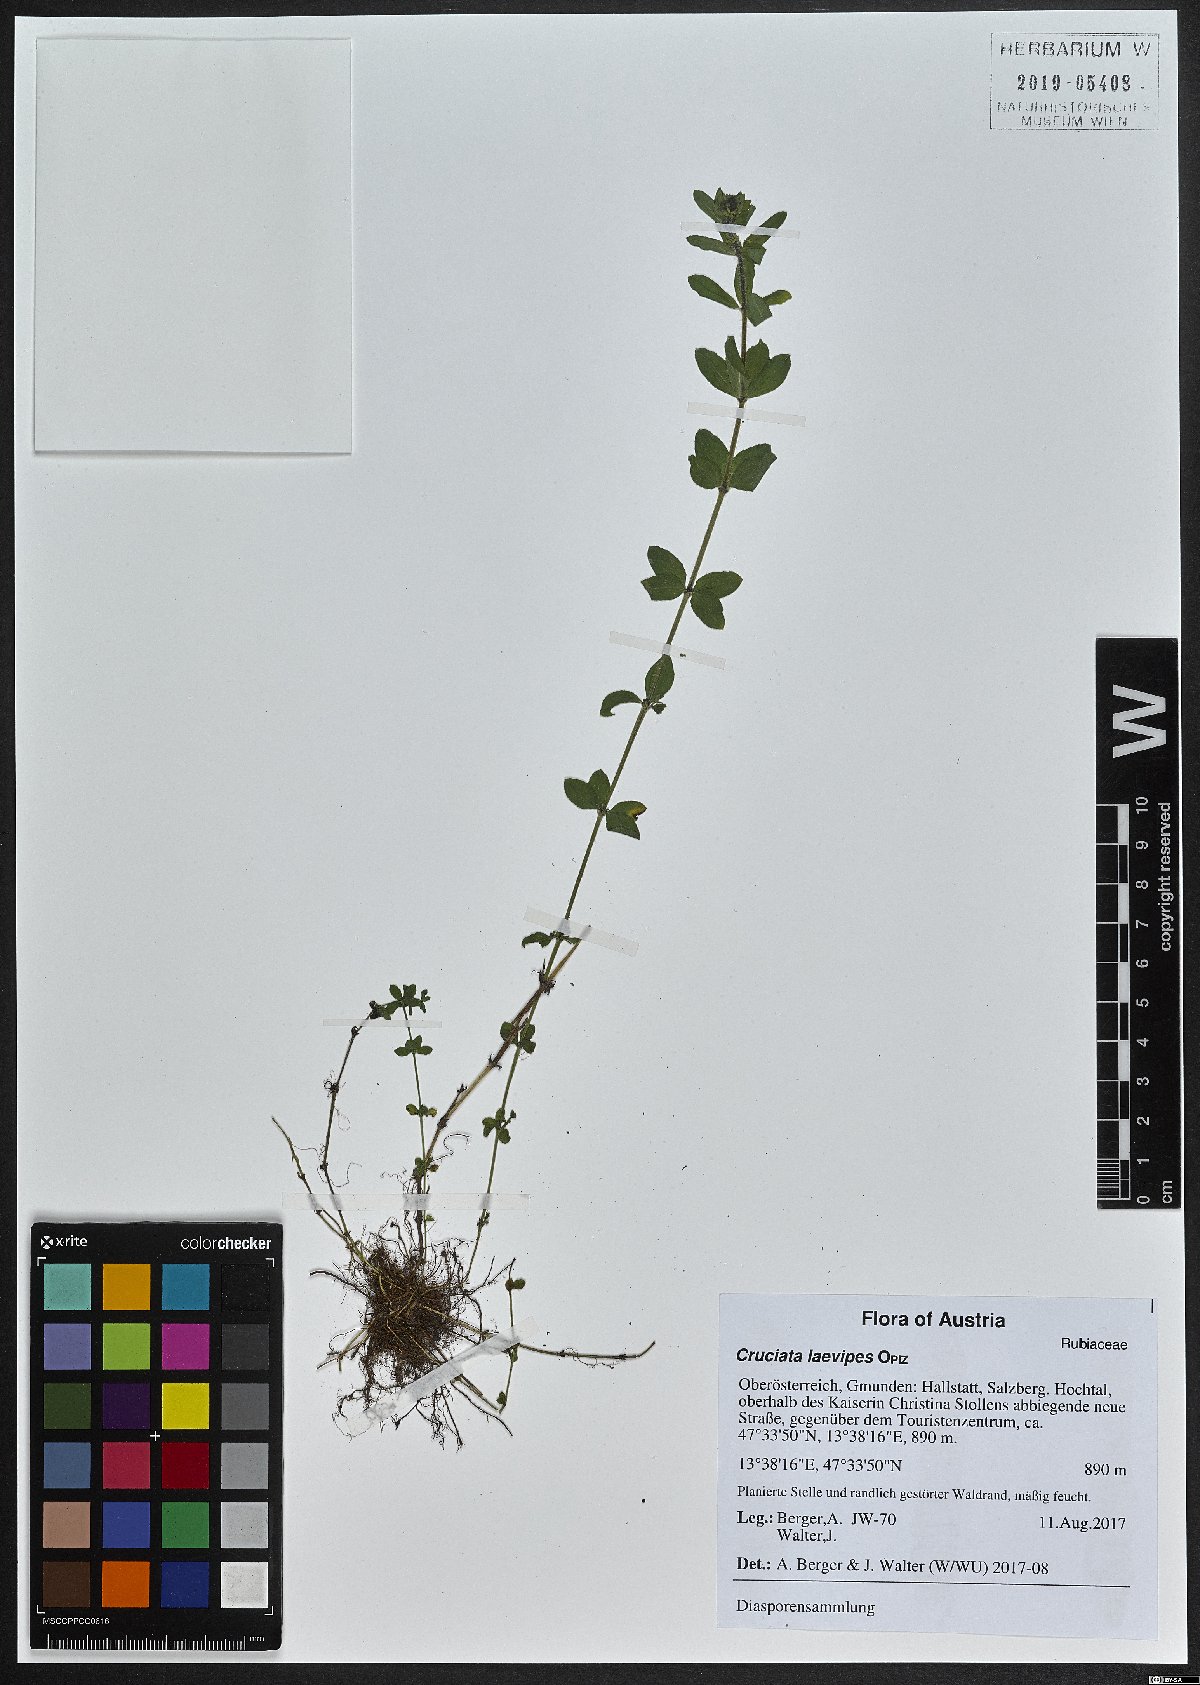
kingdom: Plantae
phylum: Tracheophyta
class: Magnoliopsida
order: Gentianales
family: Rubiaceae
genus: Cruciata
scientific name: Cruciata laevipes
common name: Crosswort
